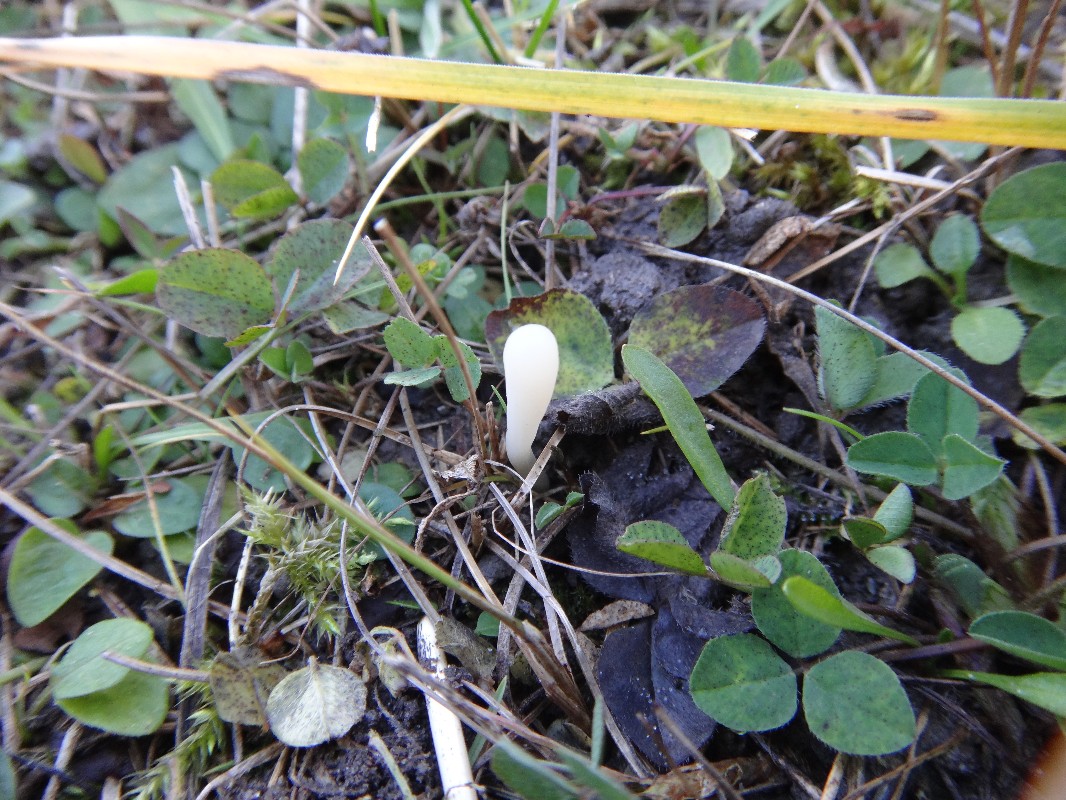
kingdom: Fungi
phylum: Basidiomycota
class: Agaricomycetes
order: Agaricales
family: Clavariaceae
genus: Clavaria
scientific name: Clavaria falcata
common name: hvid køllesvamp
